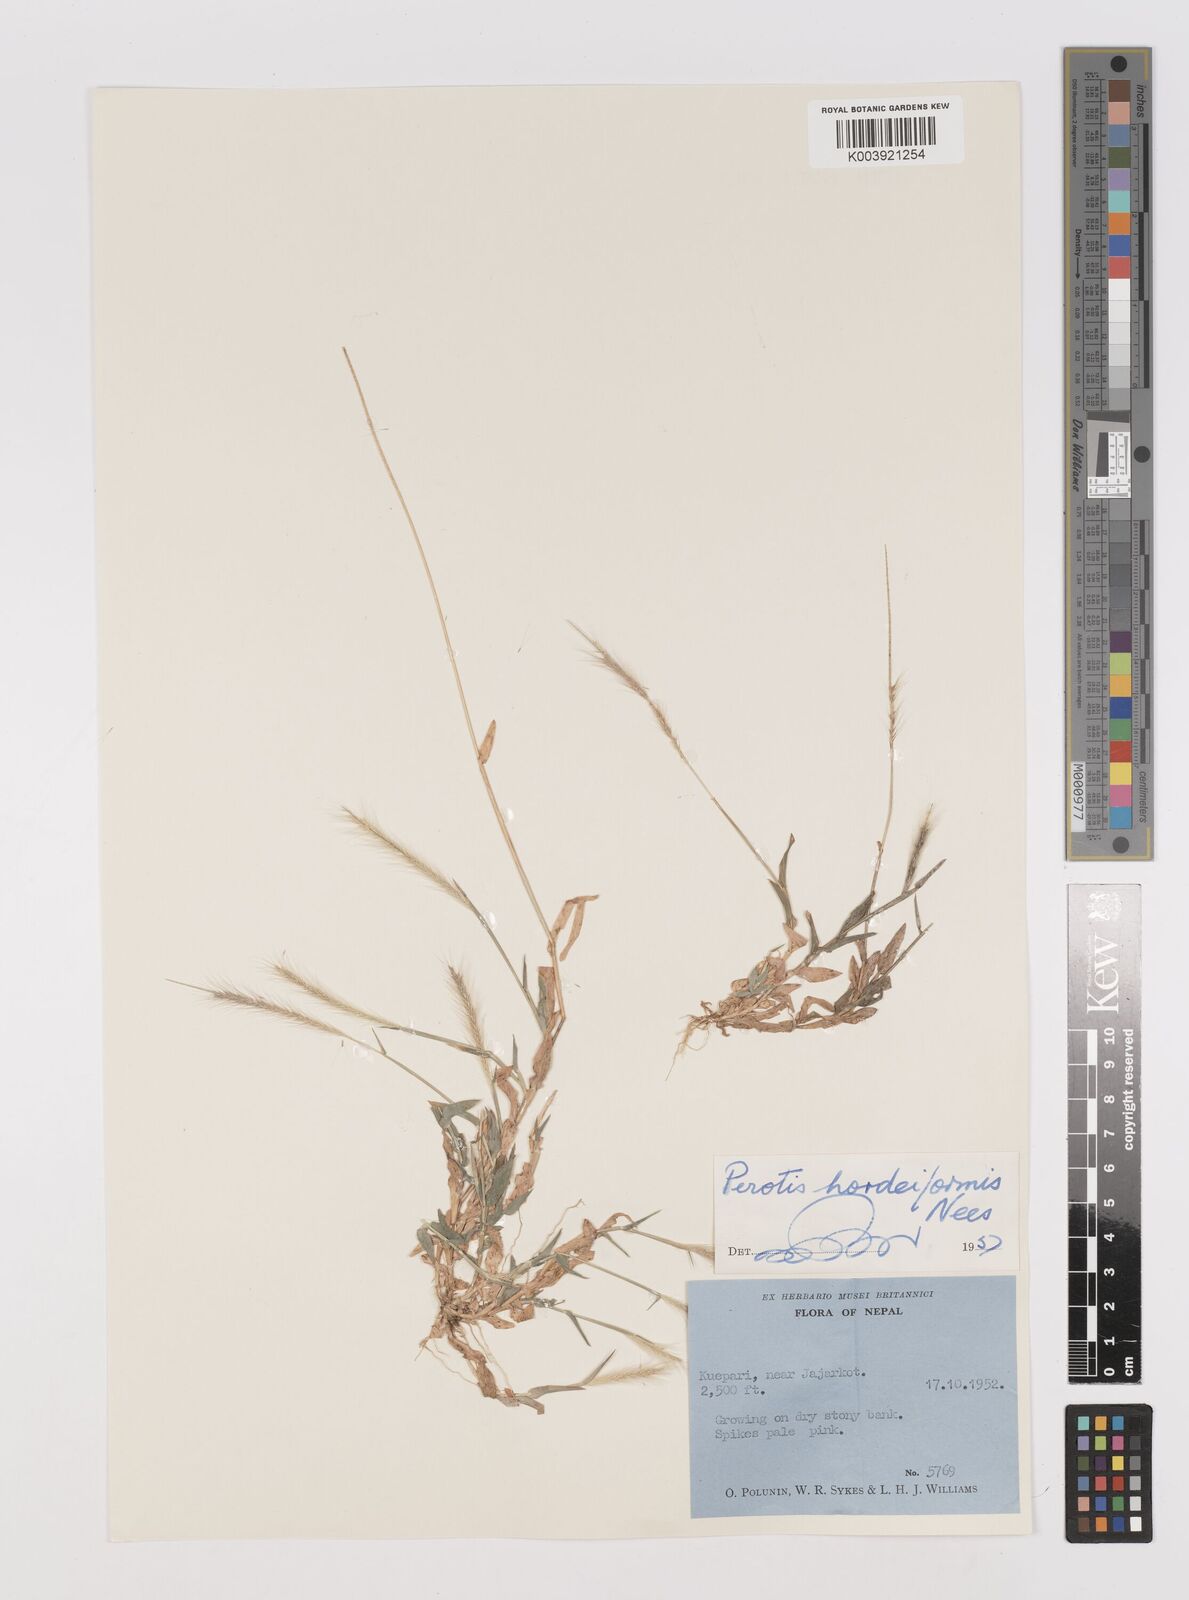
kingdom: Plantae
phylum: Tracheophyta
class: Liliopsida
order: Poales
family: Poaceae
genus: Perotis
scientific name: Perotis hordeiformis
